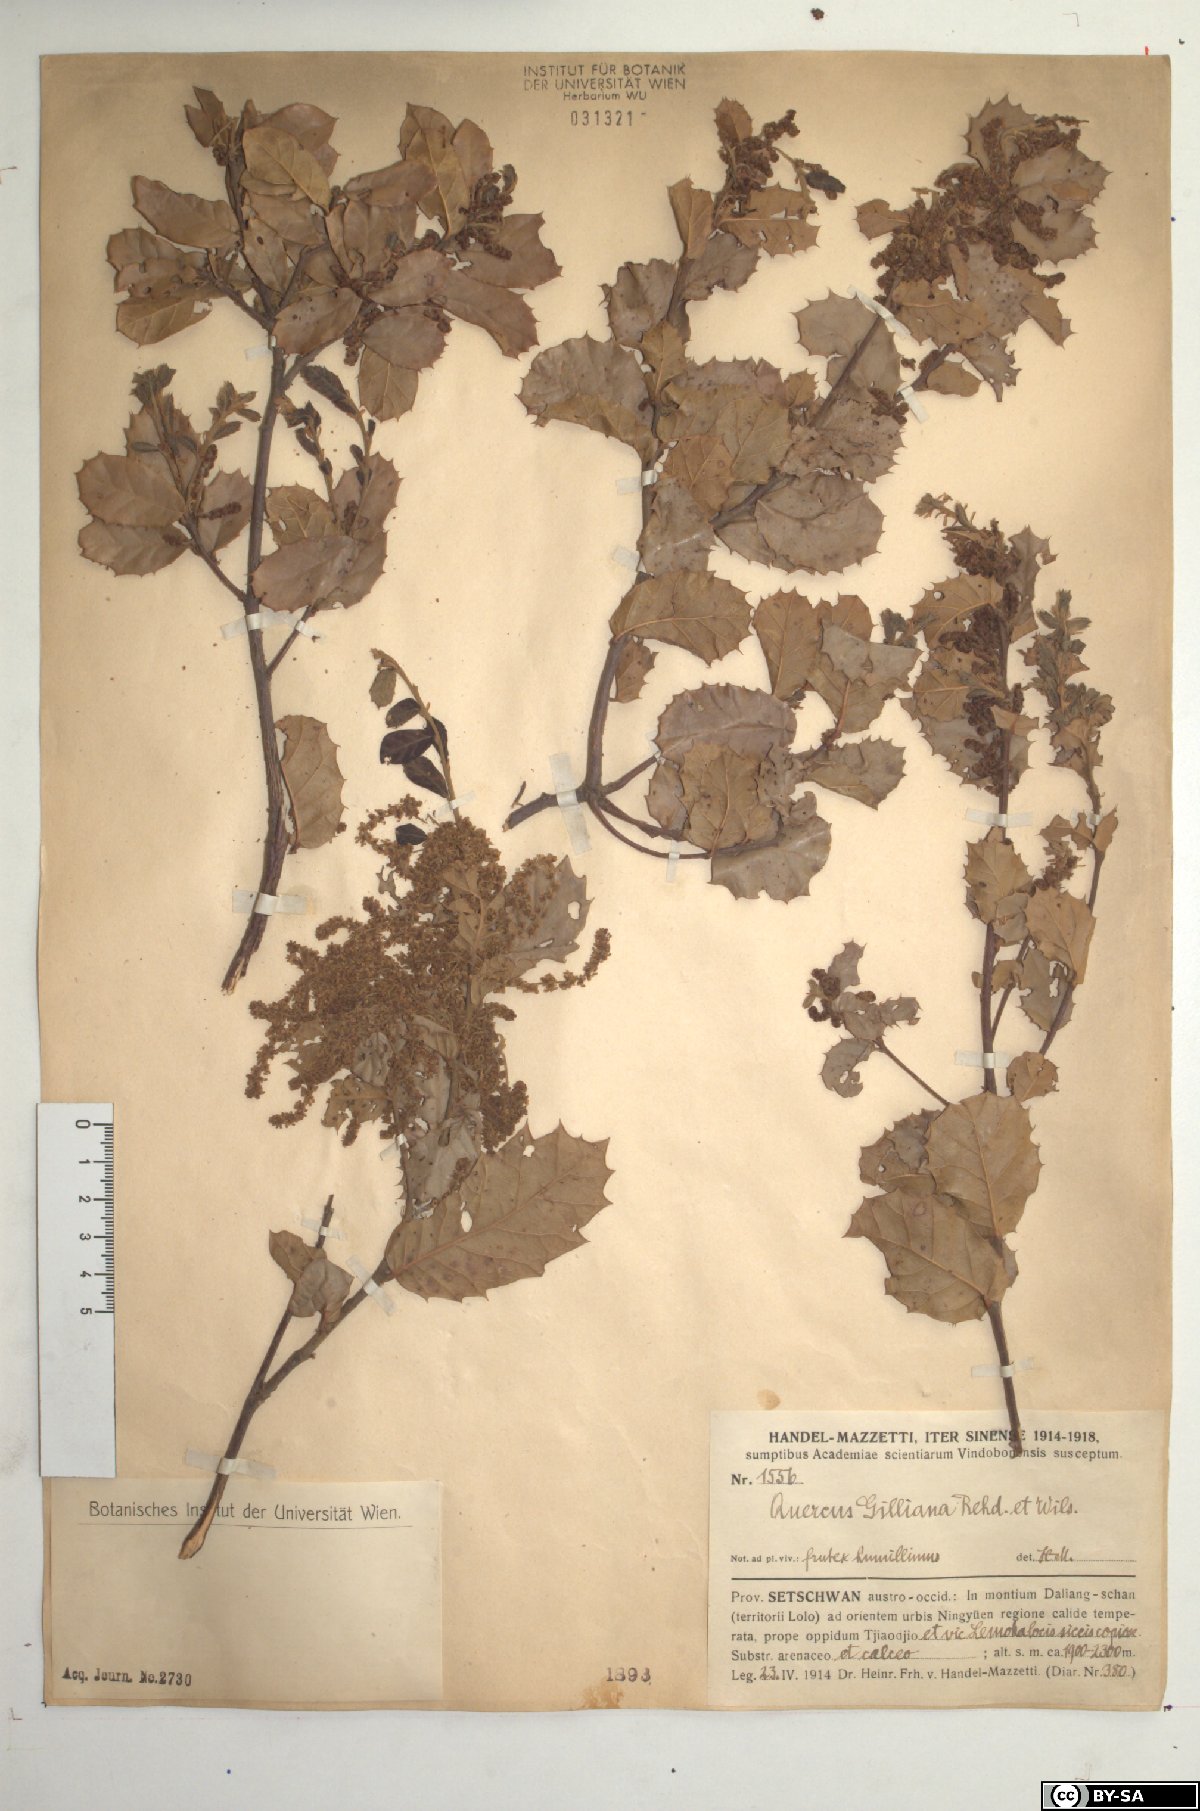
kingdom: Plantae
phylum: Tracheophyta
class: Magnoliopsida
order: Fagales
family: Fagaceae
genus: Quercus
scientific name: Quercus spinosa
